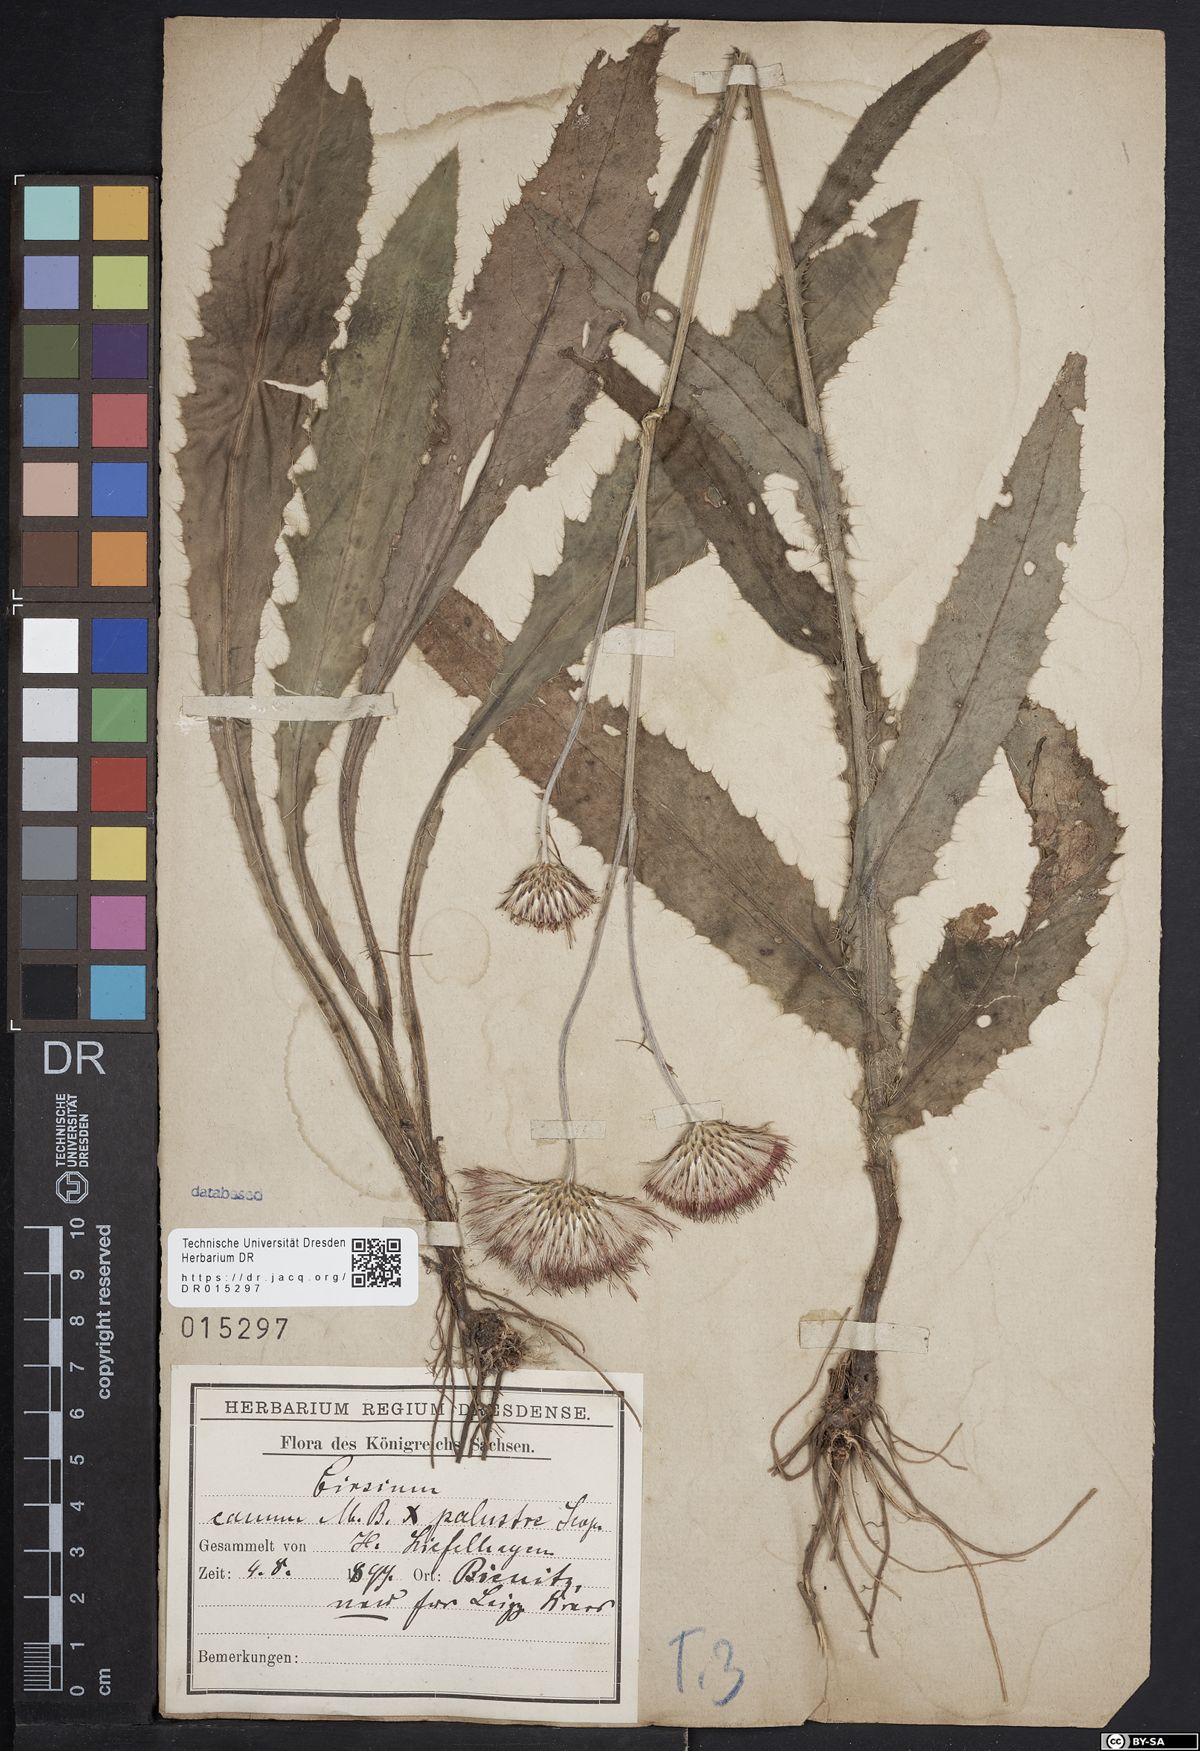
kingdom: Plantae
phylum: Tracheophyta
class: Magnoliopsida
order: Asterales
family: Asteraceae
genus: Cirsium
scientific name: Cirsium silesiacum
